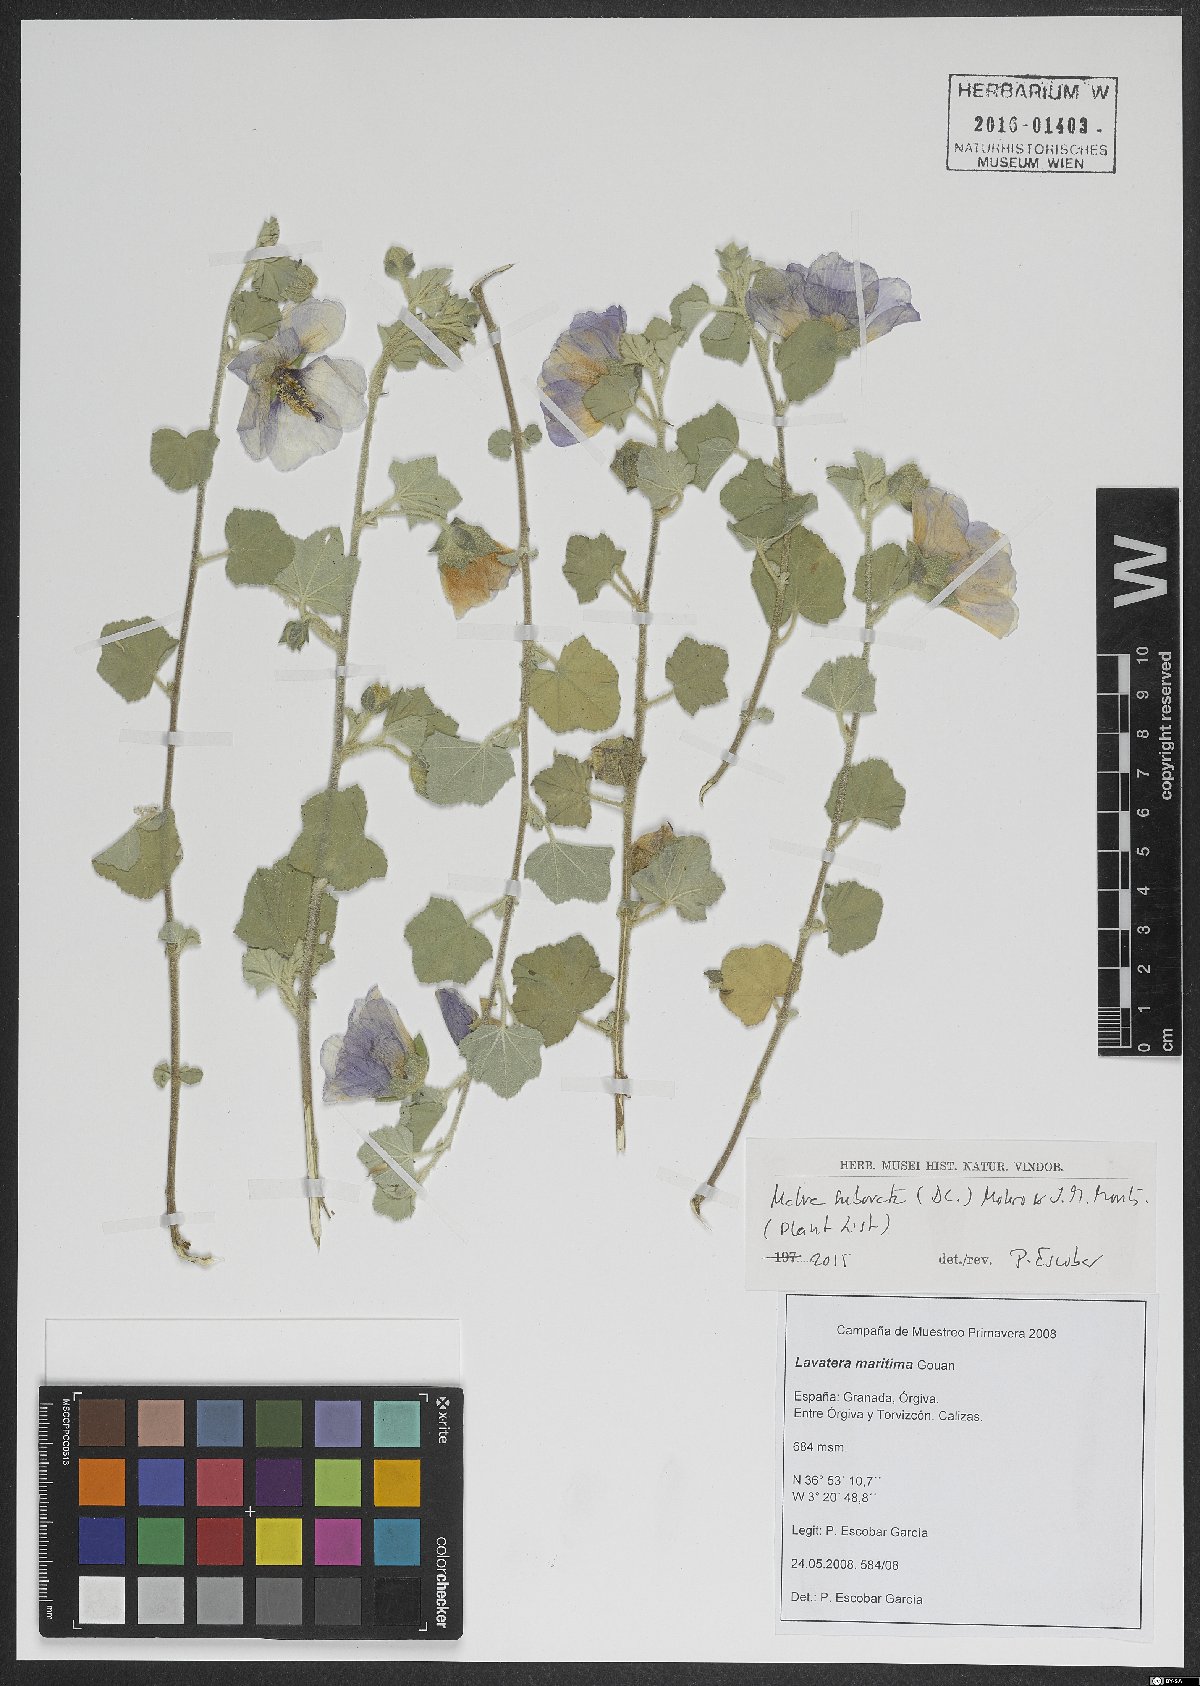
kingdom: Plantae
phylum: Tracheophyta
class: Magnoliopsida
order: Malvales
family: Malvaceae
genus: Malva
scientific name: Malva subovata
